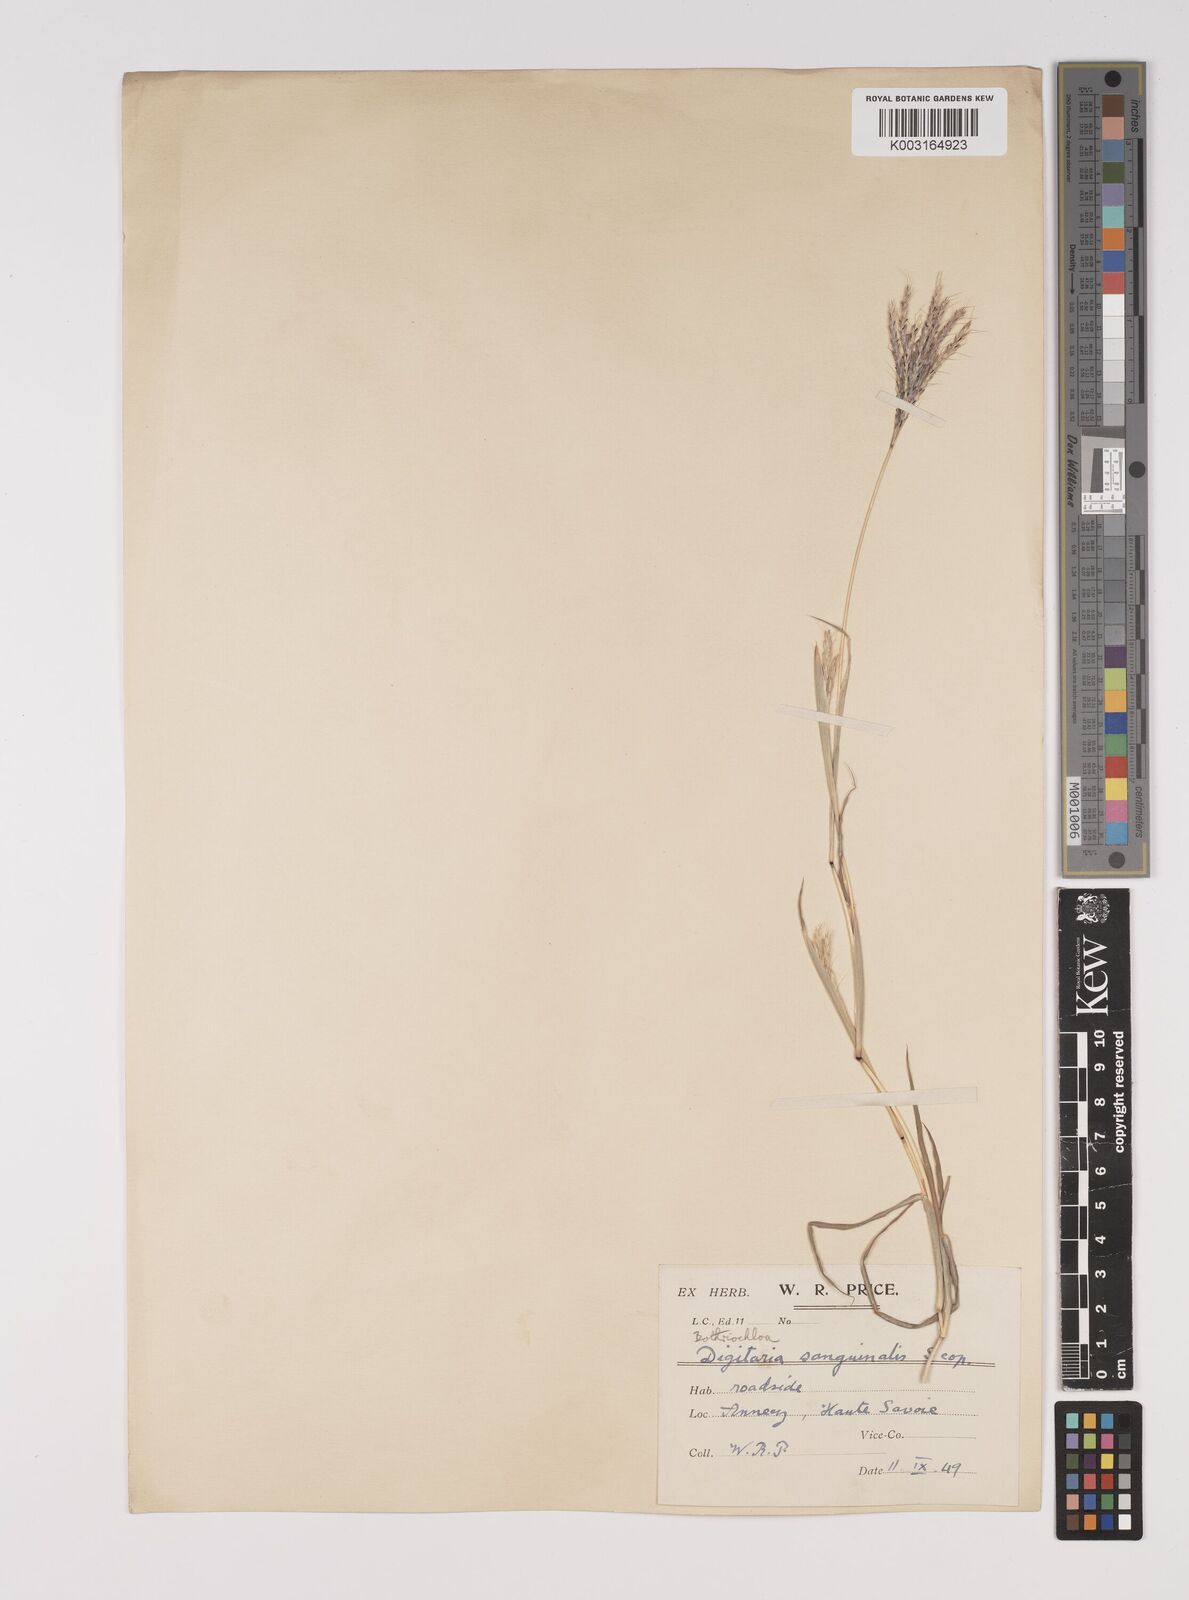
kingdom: Plantae
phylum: Tracheophyta
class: Liliopsida
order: Poales
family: Poaceae
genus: Bothriochloa
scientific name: Bothriochloa ischaemum
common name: Yellow bluestem
